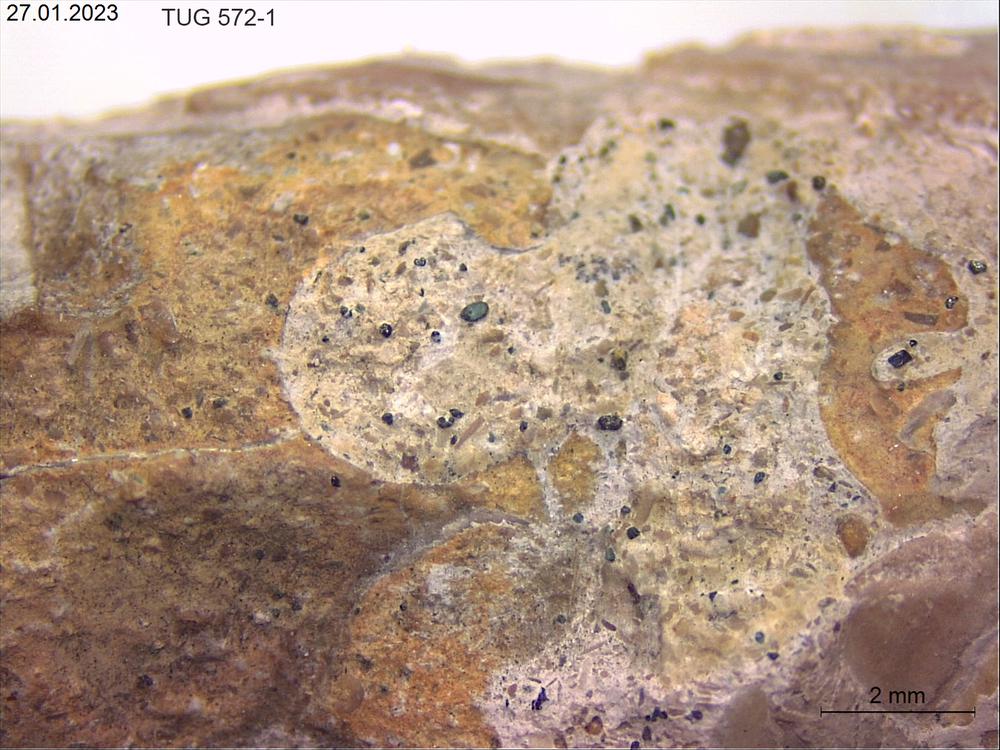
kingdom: Animalia
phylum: Sipuncula
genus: Trypanites
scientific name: Trypanites
